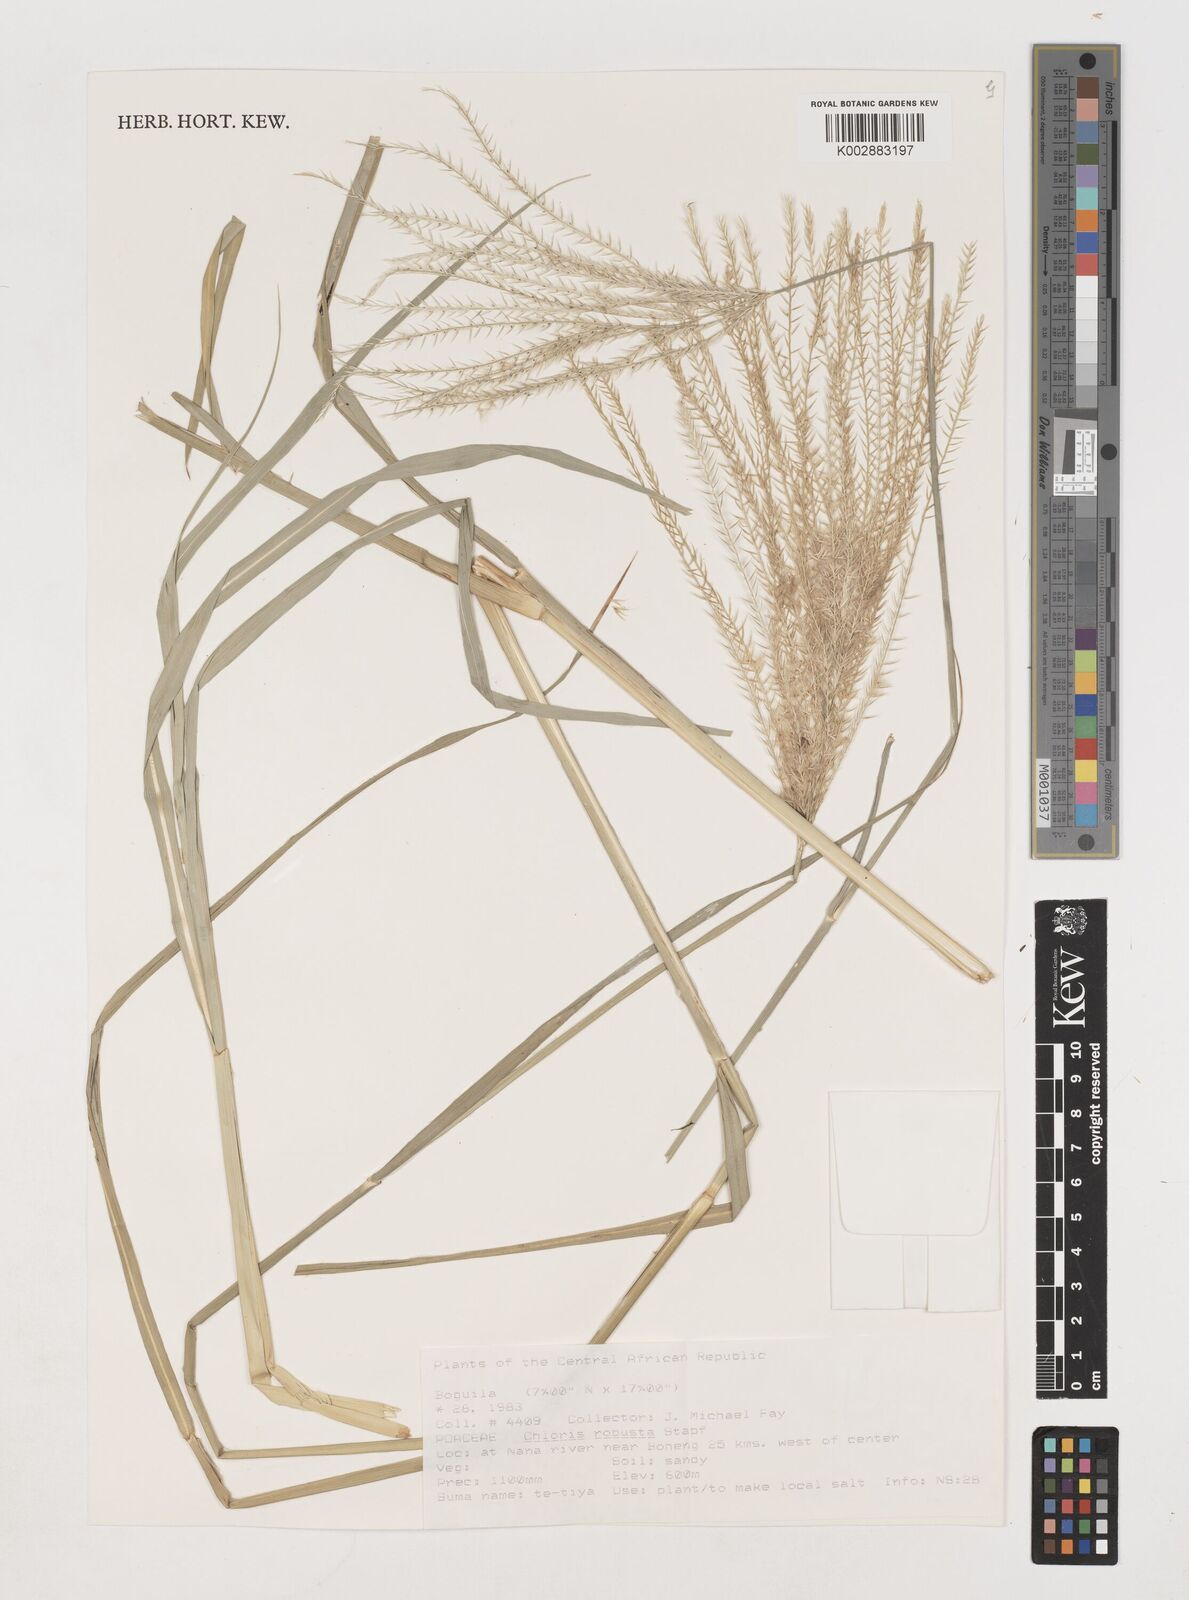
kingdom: Plantae
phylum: Tracheophyta
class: Liliopsida
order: Poales
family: Poaceae
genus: Chloris
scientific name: Chloris robusta
